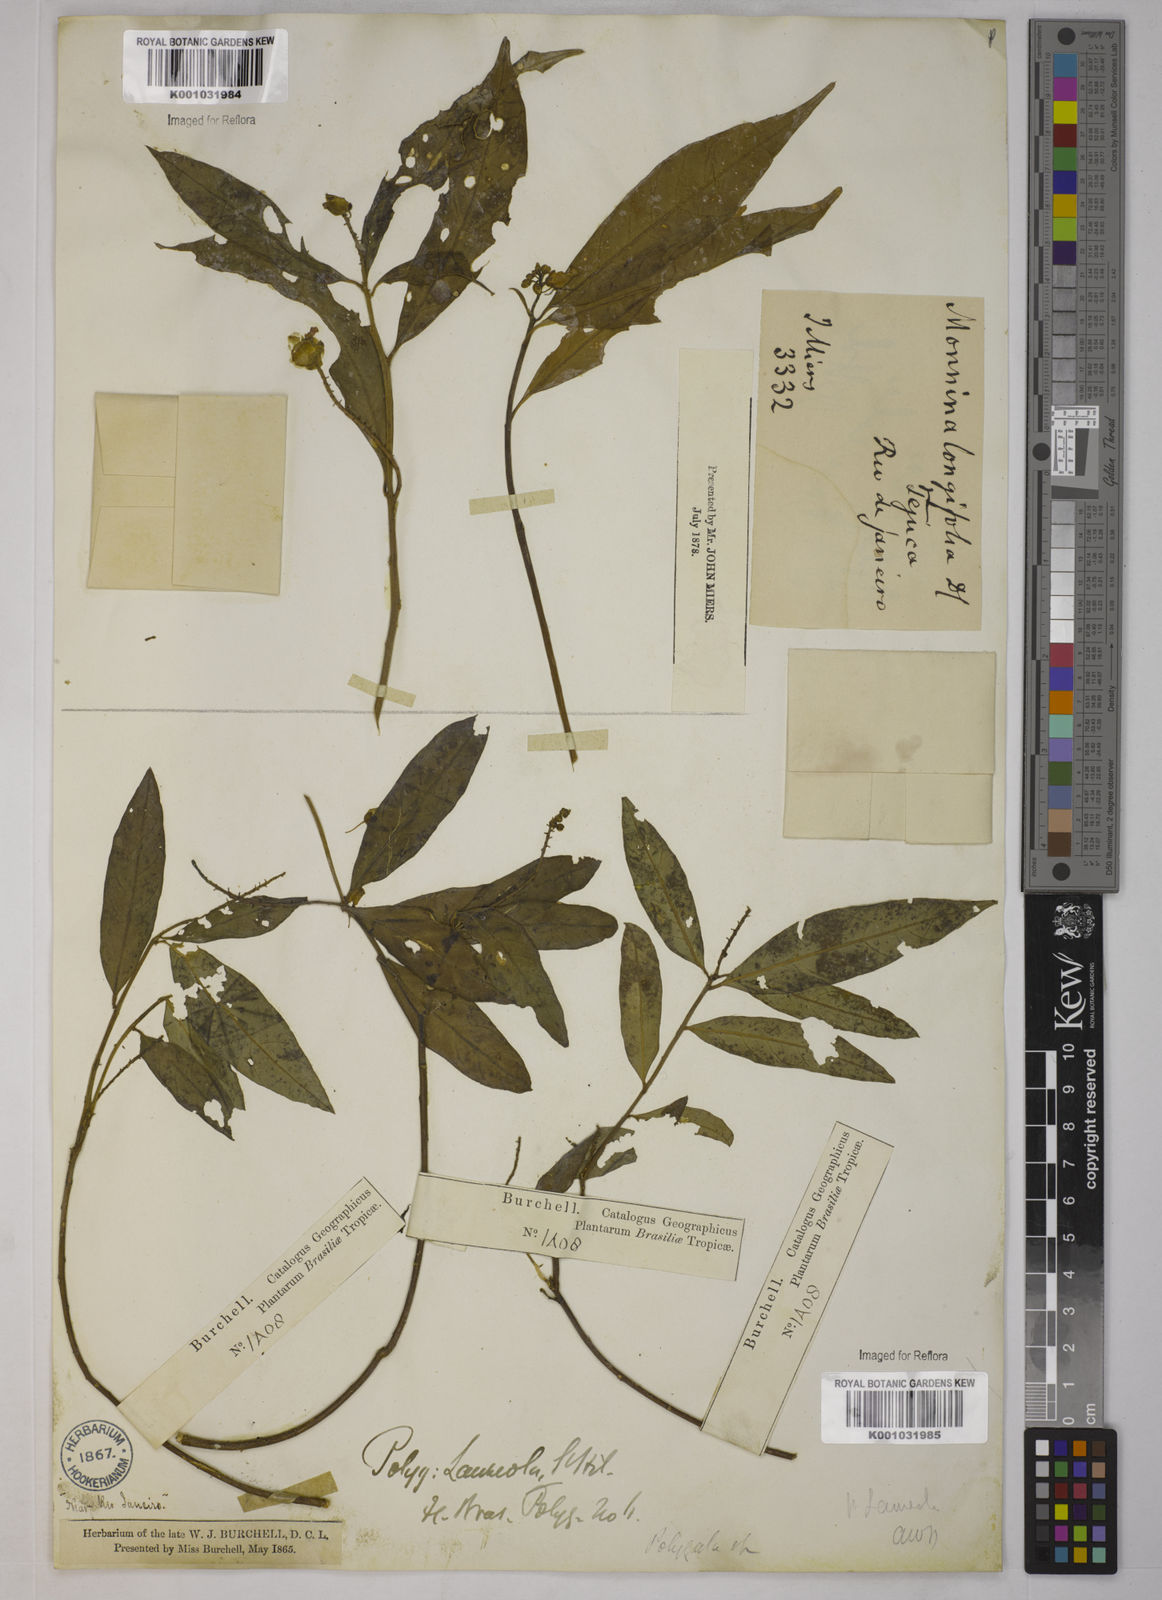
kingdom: Plantae
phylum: Tracheophyta
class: Magnoliopsida
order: Fabales
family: Polygalaceae
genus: Caamembeca
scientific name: Caamembeca salicifolia
